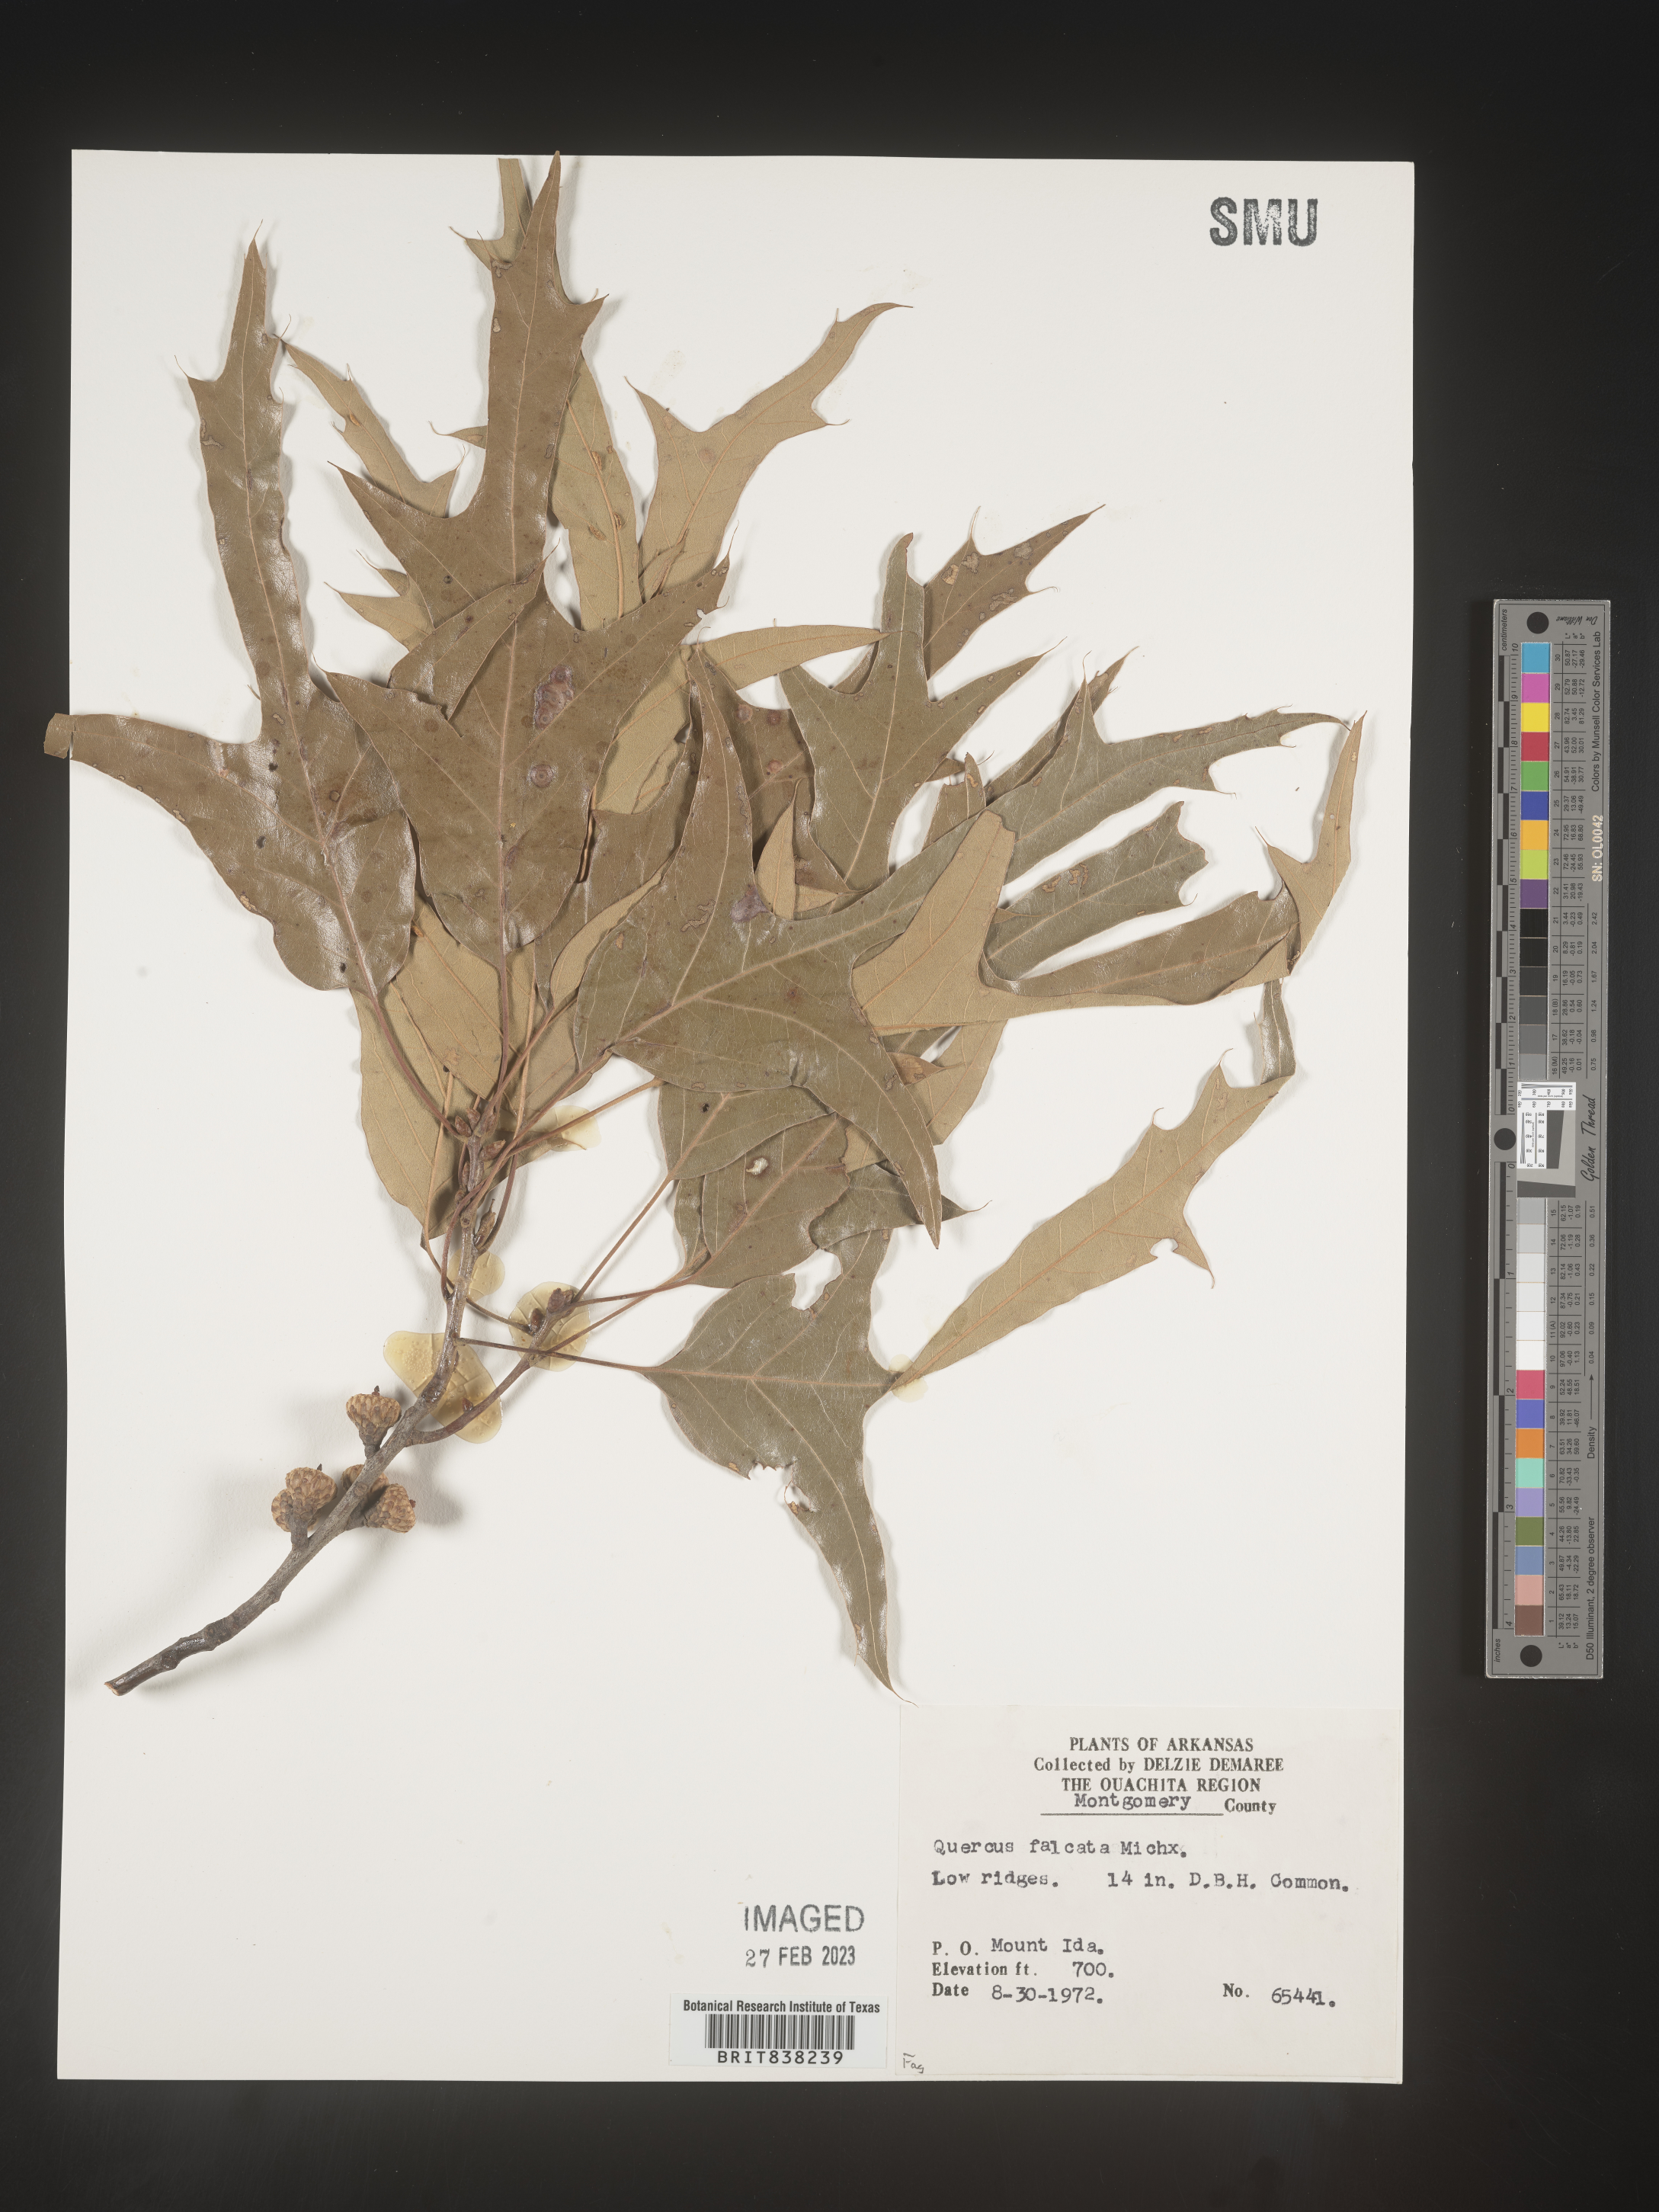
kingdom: Plantae
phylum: Tracheophyta
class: Magnoliopsida
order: Fagales
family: Fagaceae
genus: Quercus
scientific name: Quercus falcata
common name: Southern red oak
